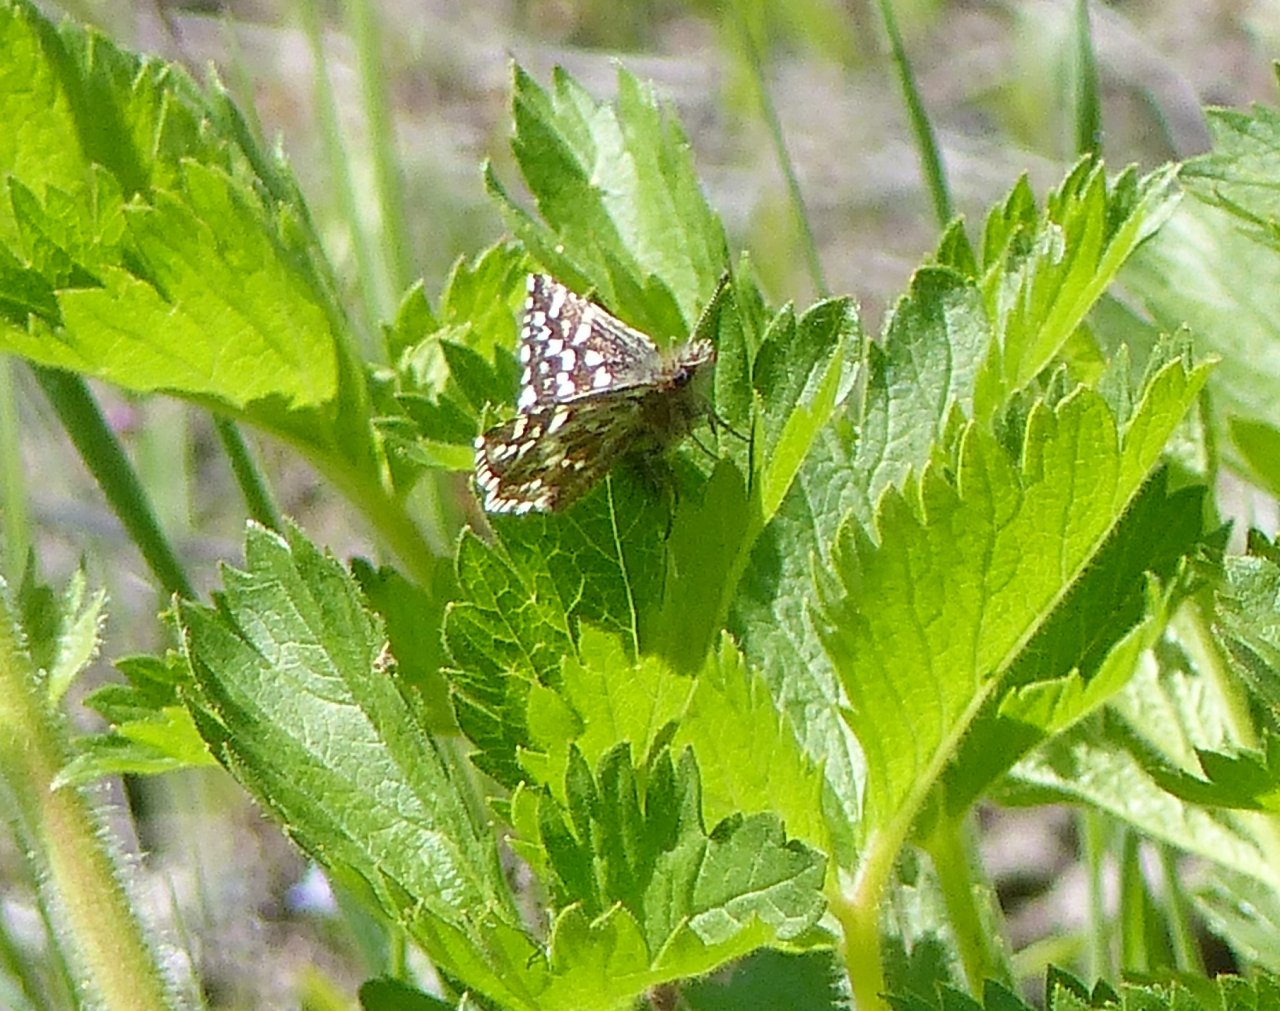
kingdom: Animalia
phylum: Arthropoda
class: Insecta
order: Lepidoptera
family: Hesperiidae
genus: Pyrgus
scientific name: Pyrgus ruralis
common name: Two-banded Checkered-Skipper
